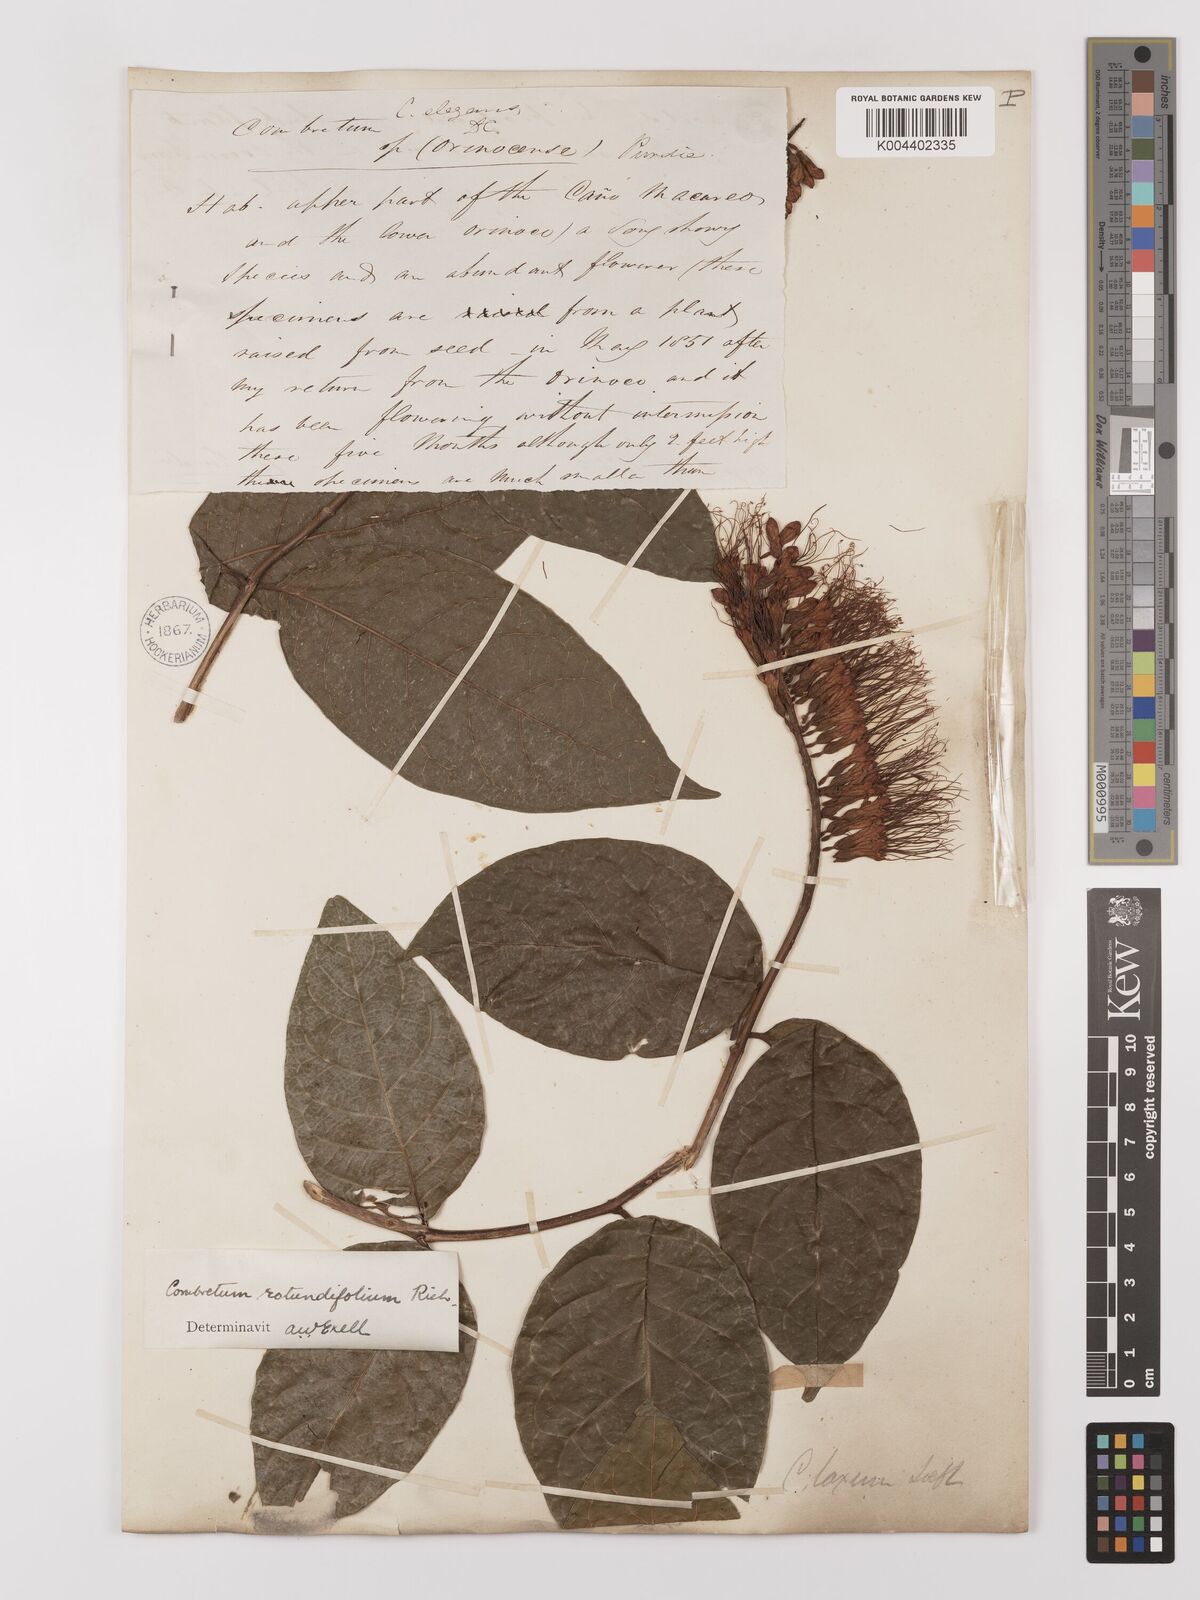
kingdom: Plantae
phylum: Tracheophyta
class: Magnoliopsida
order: Myrtales
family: Combretaceae
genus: Combretum
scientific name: Combretum
